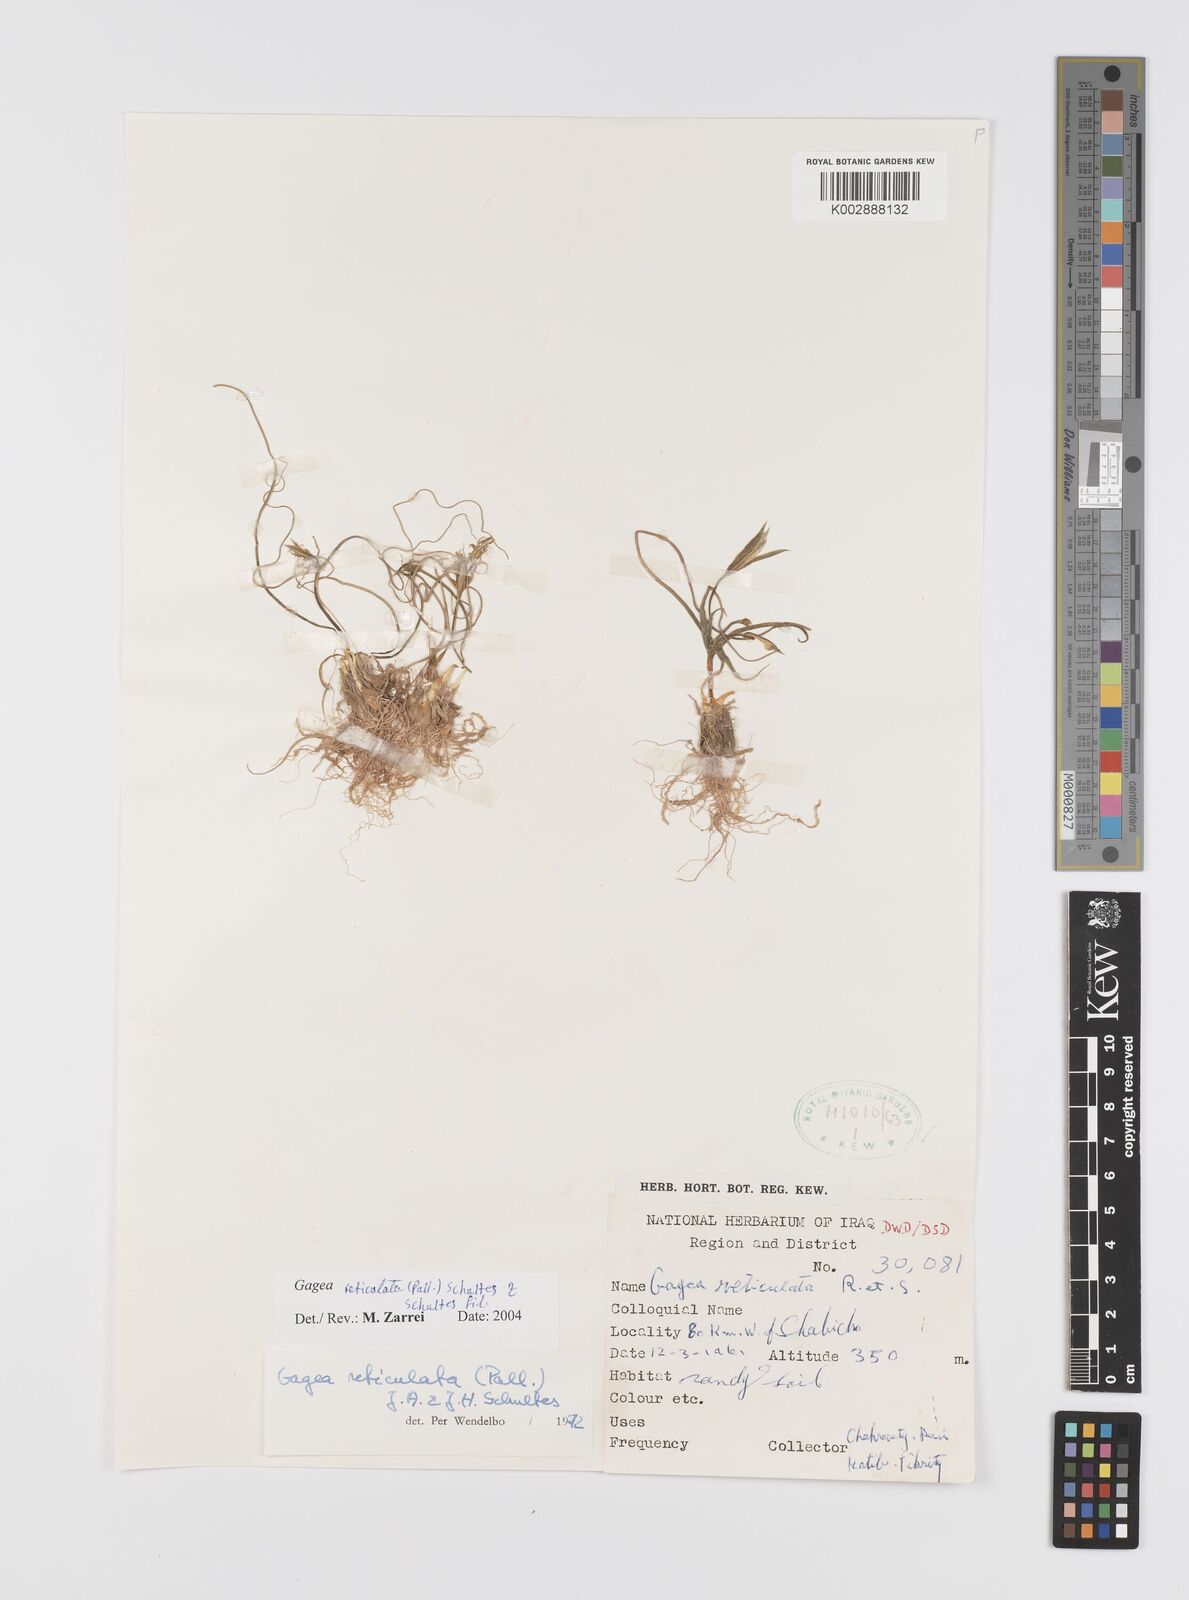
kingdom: Plantae
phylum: Tracheophyta
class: Liliopsida
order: Liliales
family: Liliaceae
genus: Gagea
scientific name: Gagea reticulata
